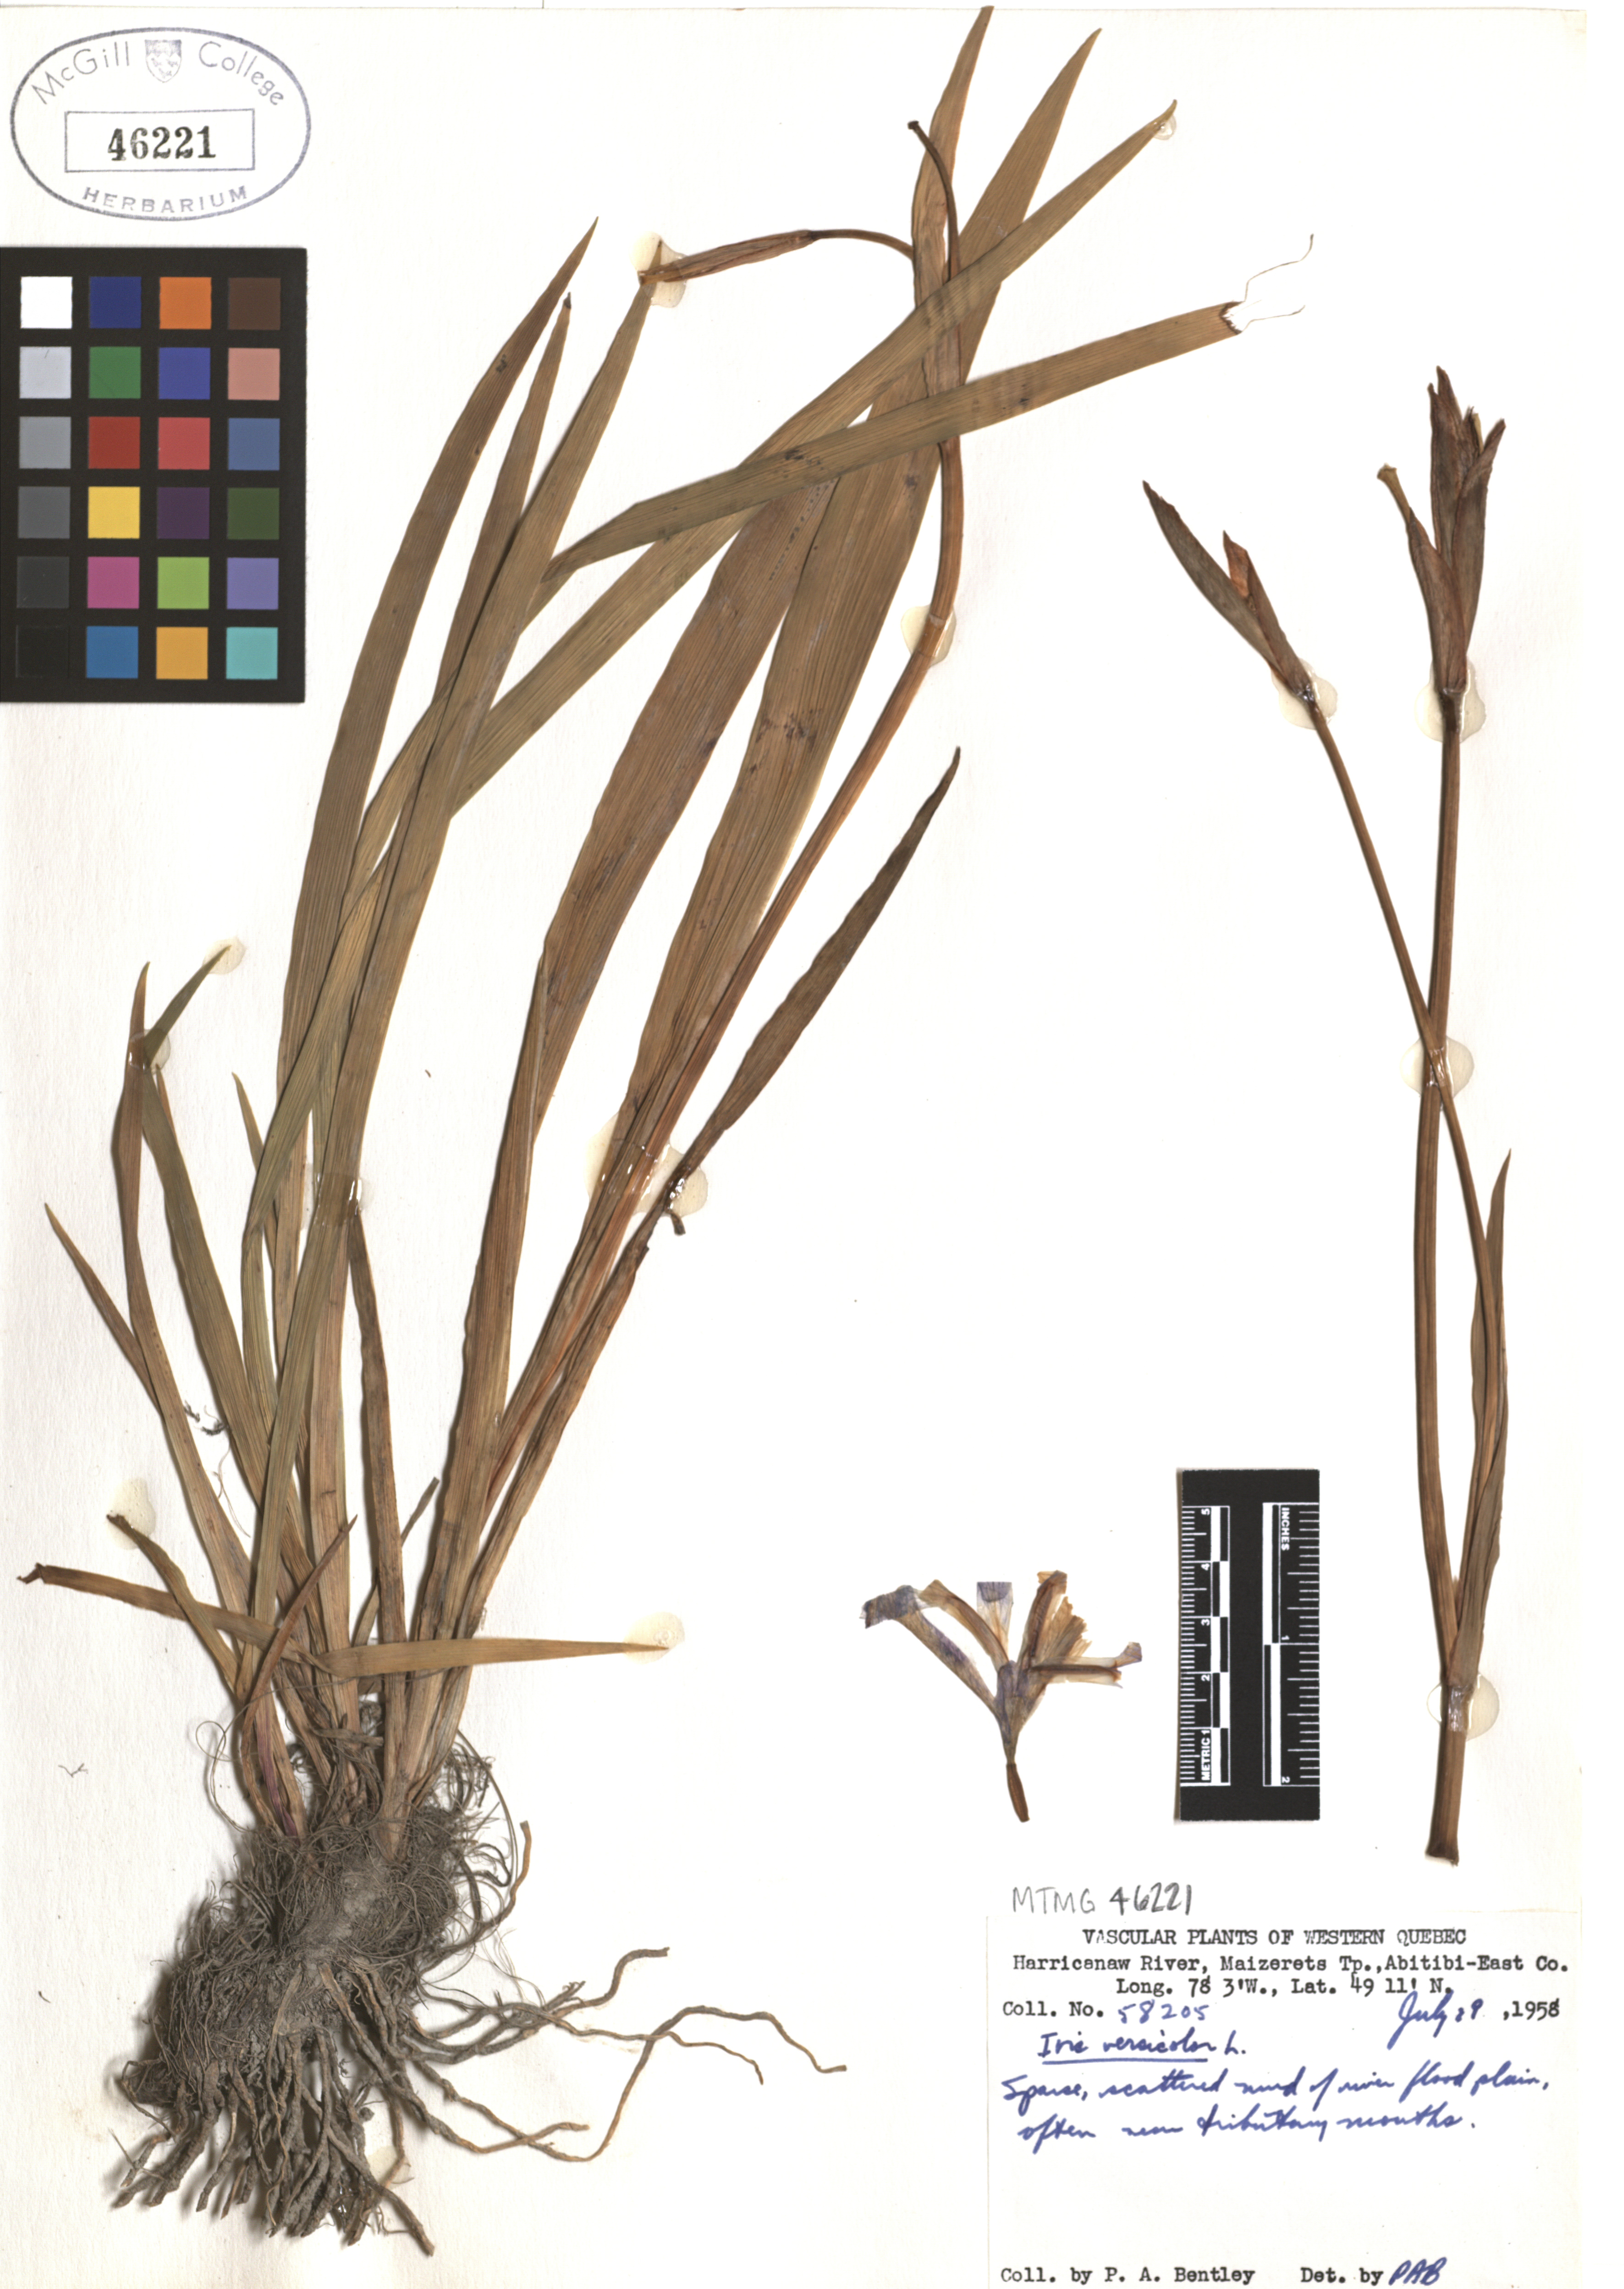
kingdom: Plantae
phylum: Tracheophyta
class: Liliopsida
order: Asparagales
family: Iridaceae
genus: Iris
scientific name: Iris versicolor
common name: Purple iris
